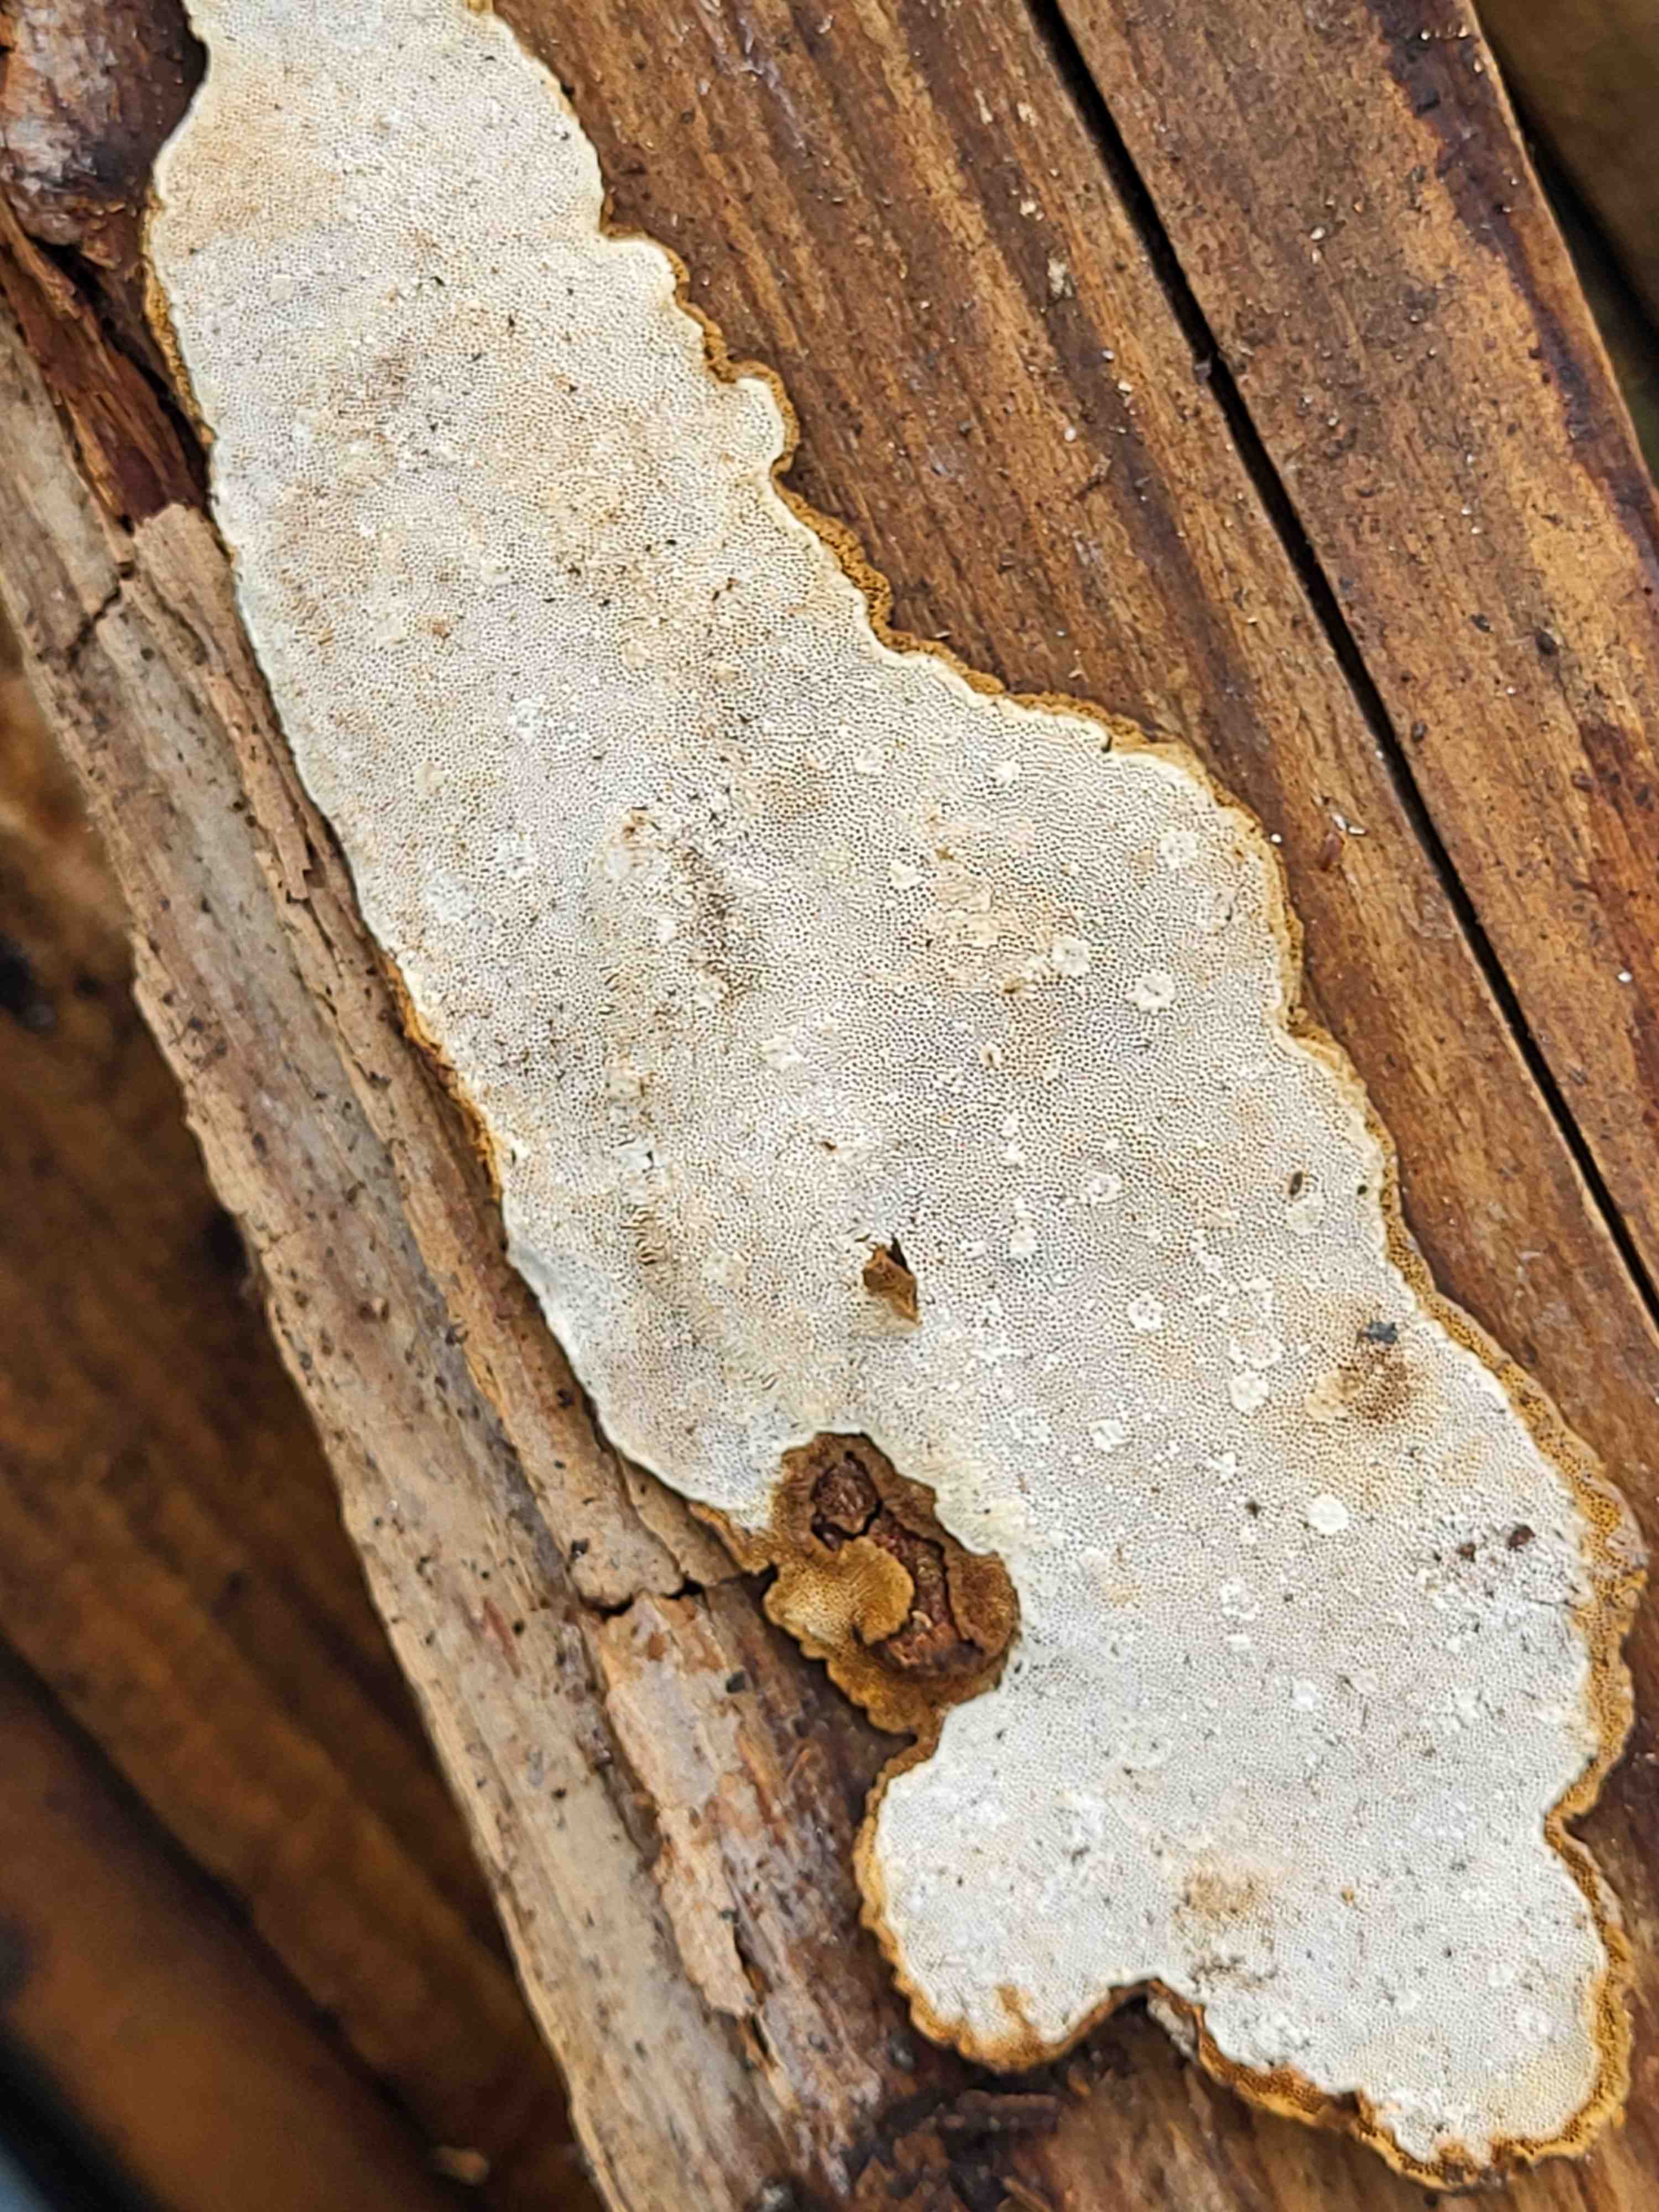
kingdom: Fungi
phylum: Basidiomycota
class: Agaricomycetes
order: Polyporales
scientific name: Polyporales
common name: poresvampordenen
